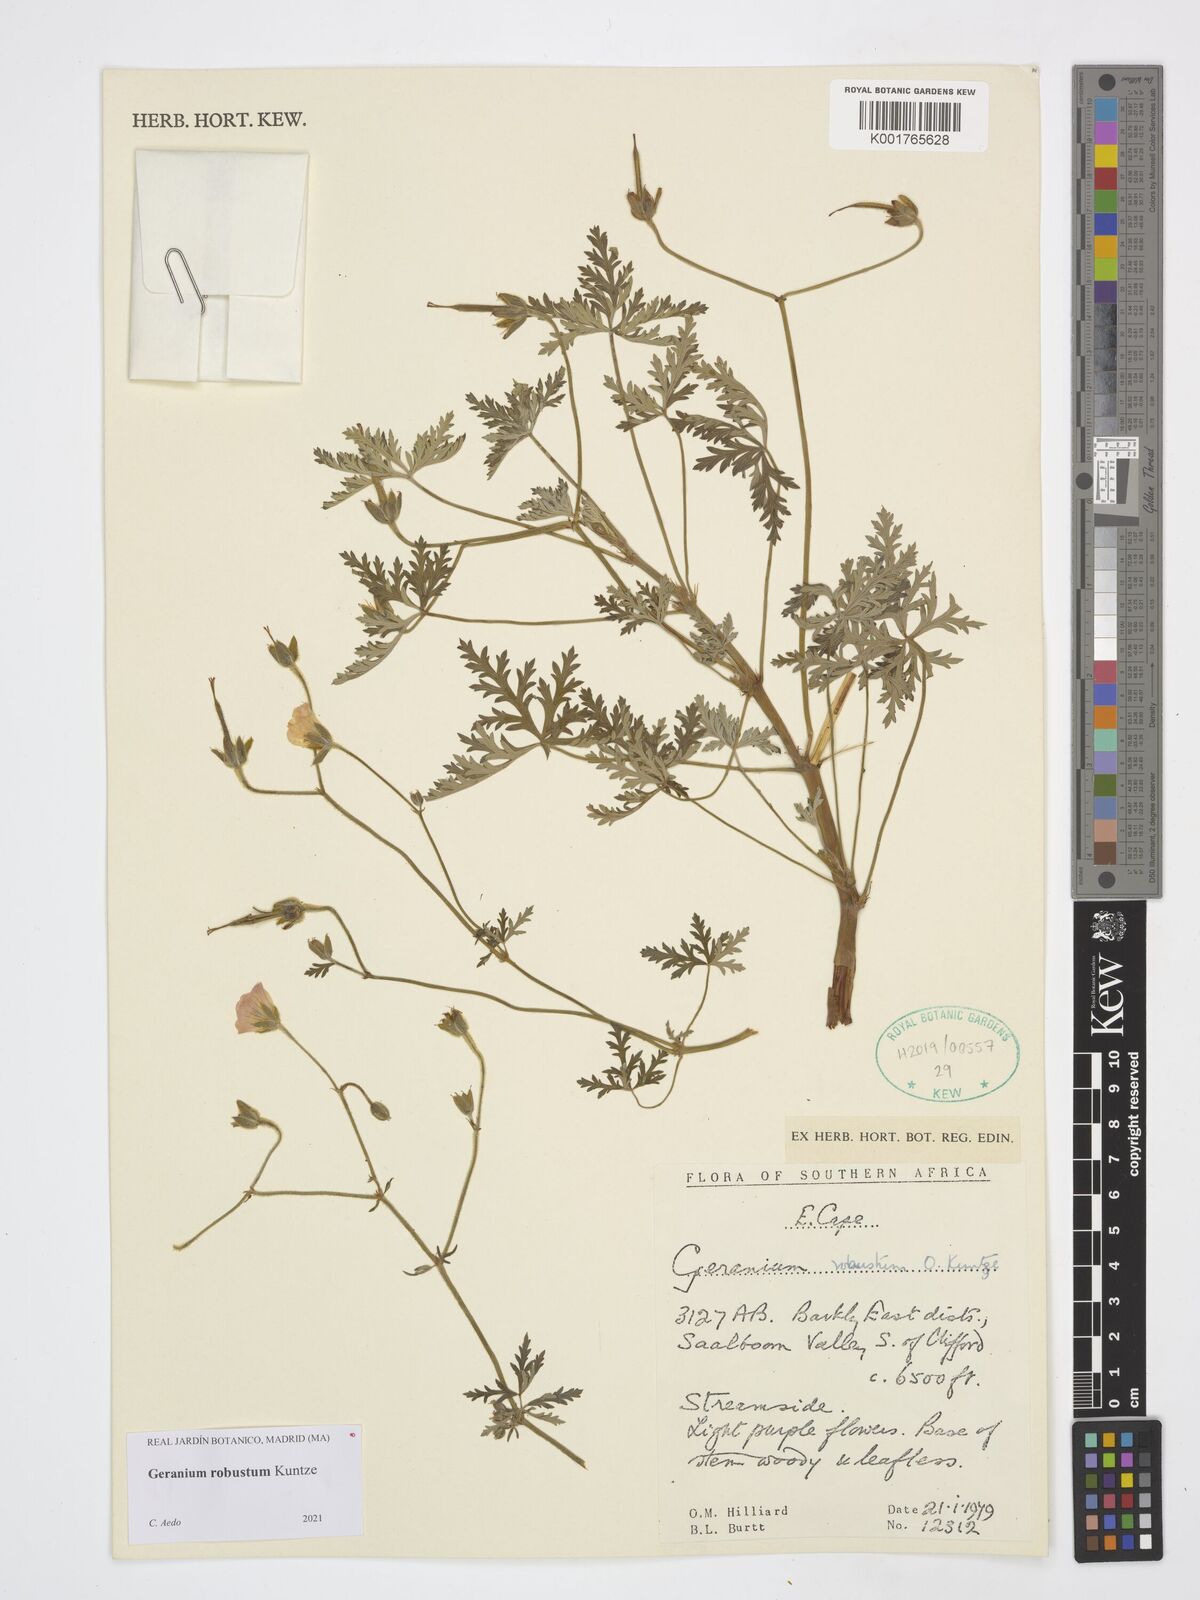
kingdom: Plantae
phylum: Tracheophyta
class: Magnoliopsida
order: Geraniales
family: Geraniaceae
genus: Geranium
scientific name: Geranium robustum
